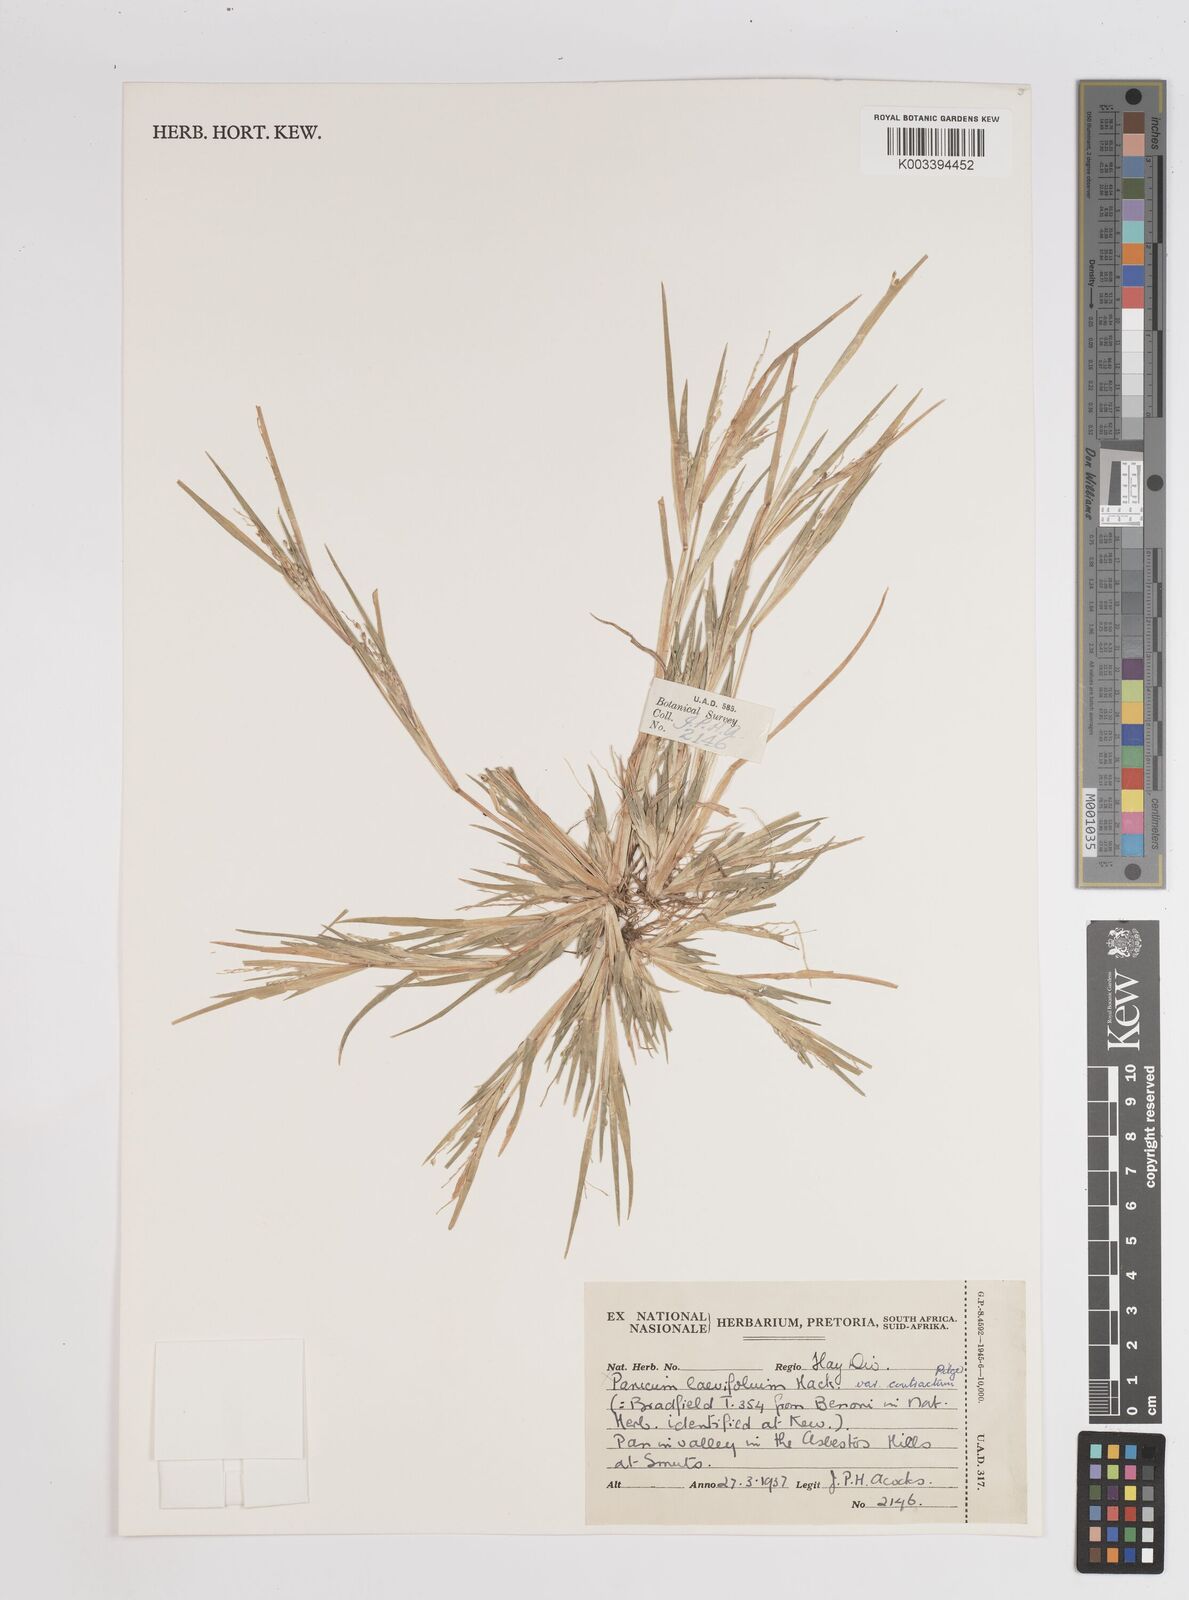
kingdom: Plantae
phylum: Tracheophyta
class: Liliopsida
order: Poales
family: Poaceae
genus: Panicum
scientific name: Panicum
